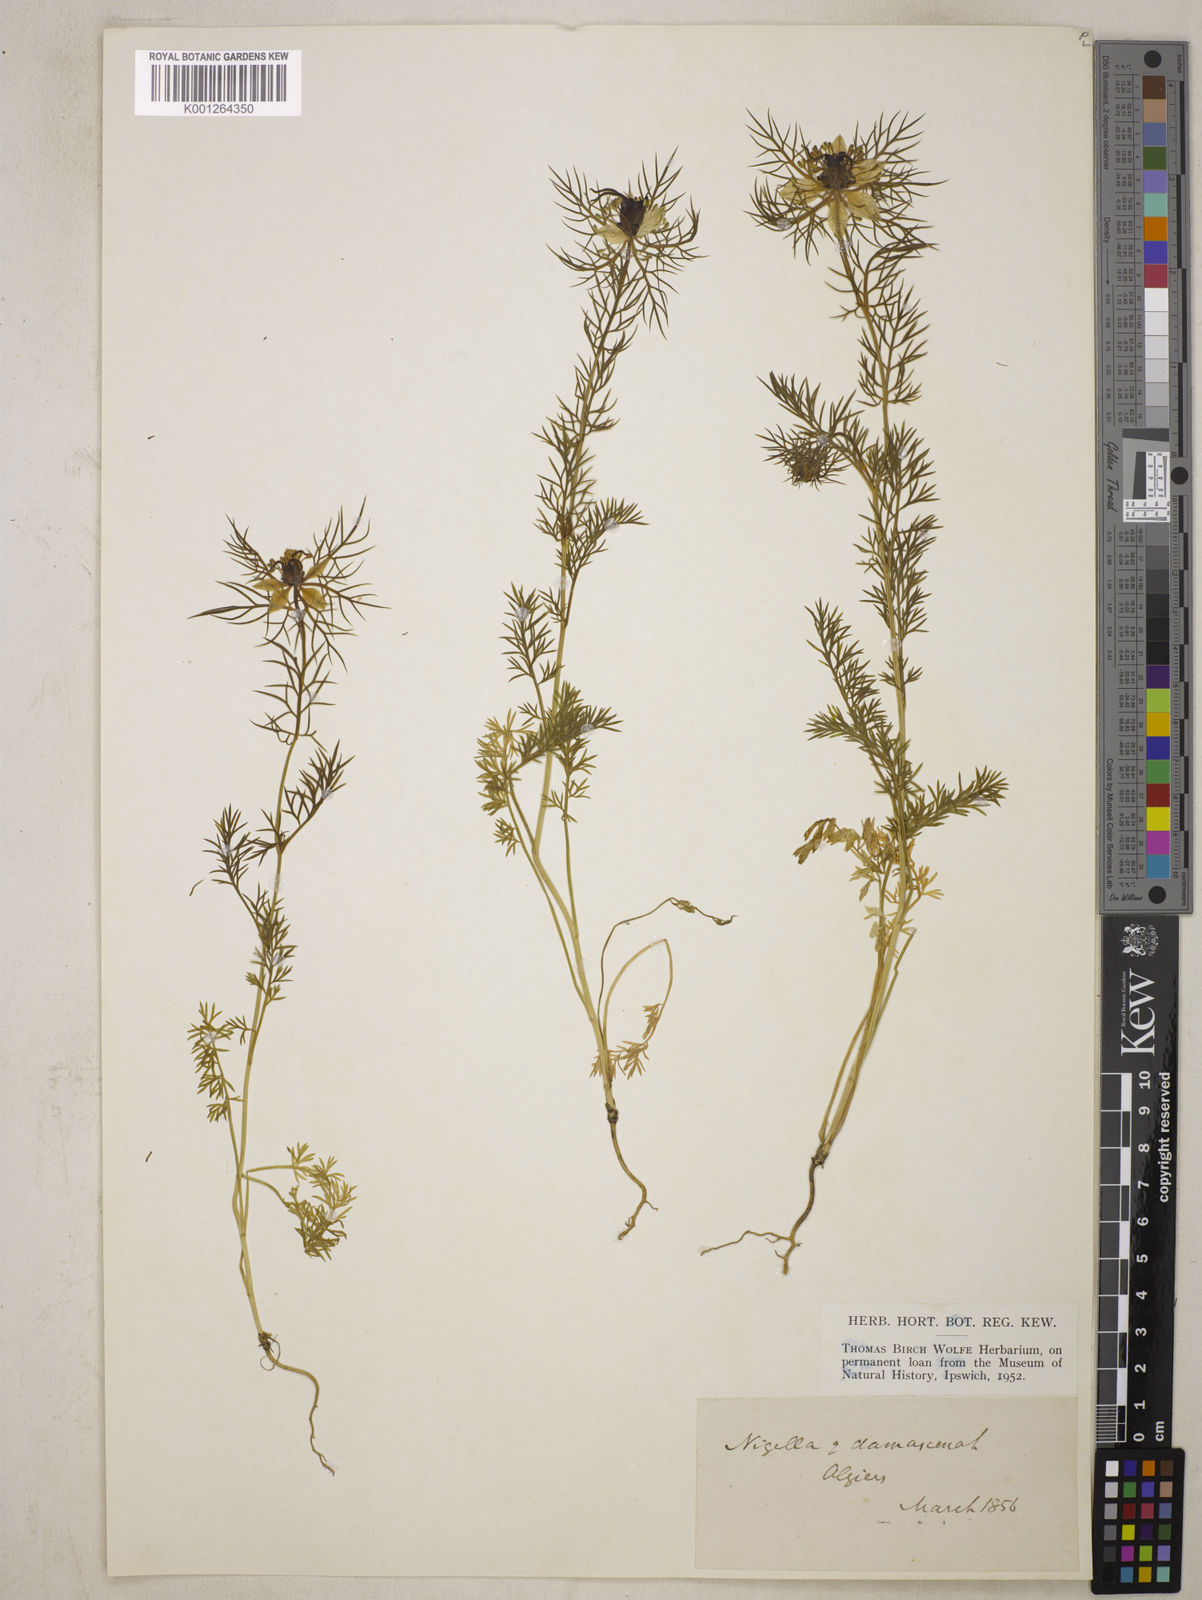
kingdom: Plantae
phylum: Tracheophyta
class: Magnoliopsida
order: Ranunculales
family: Ranunculaceae
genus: Nigella
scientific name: Nigella damascena
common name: Love-in-a-mist
